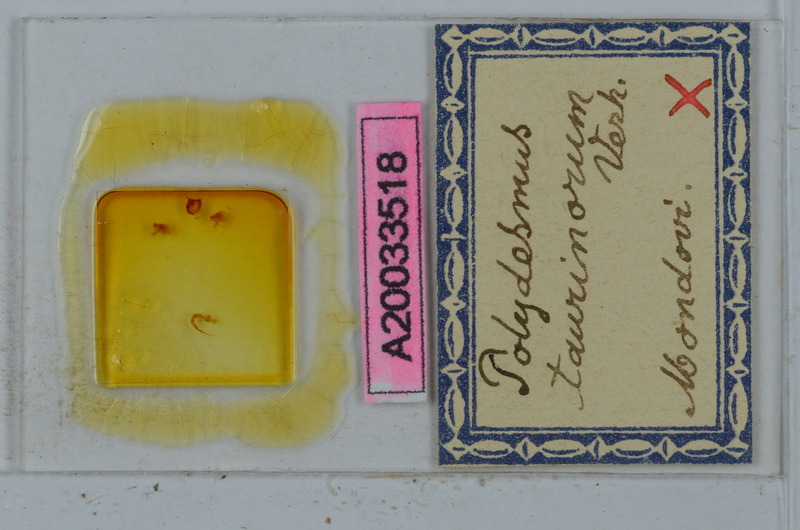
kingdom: Animalia
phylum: Arthropoda
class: Diplopoda
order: Polydesmida
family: Polydesmidae
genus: Propolydesmus
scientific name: Propolydesmus testaceus
